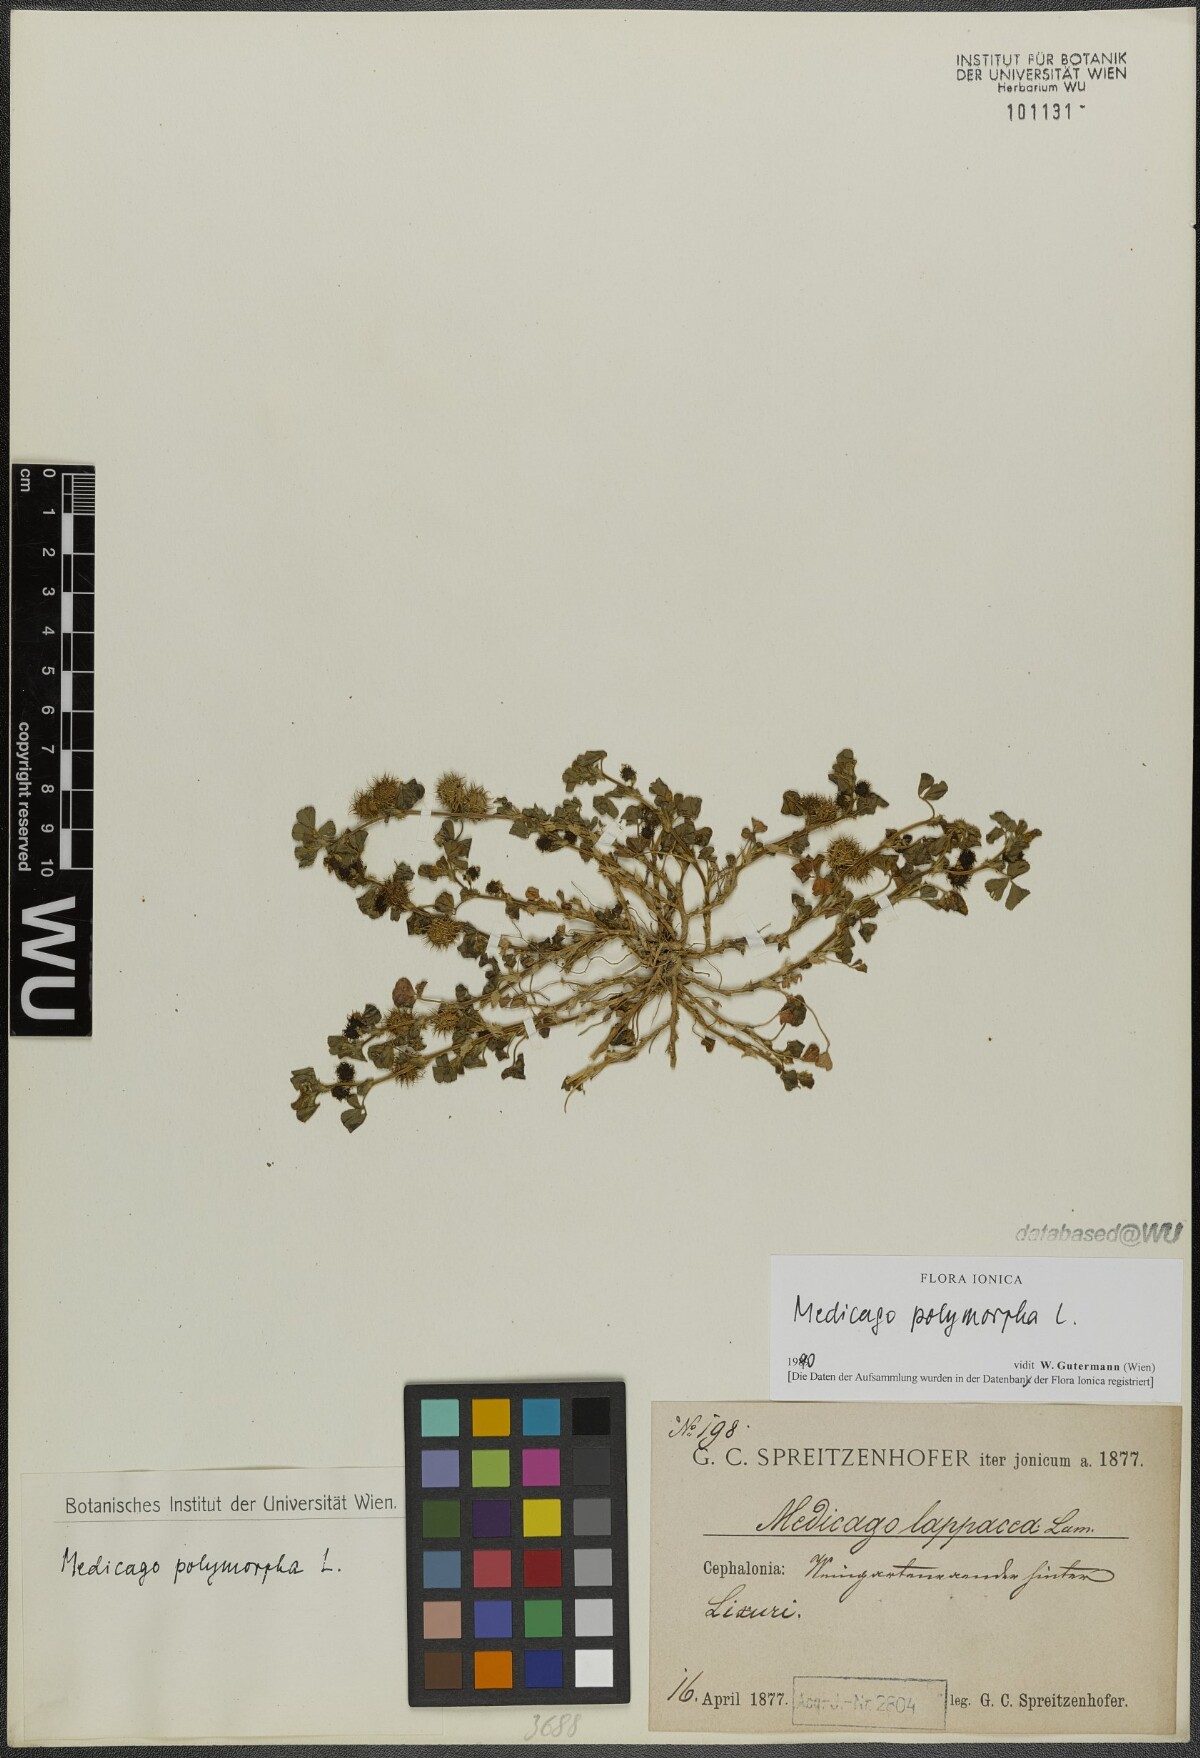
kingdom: Plantae
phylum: Tracheophyta
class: Magnoliopsida
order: Fabales
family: Fabaceae
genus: Medicago
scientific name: Medicago polymorpha
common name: Burclover
